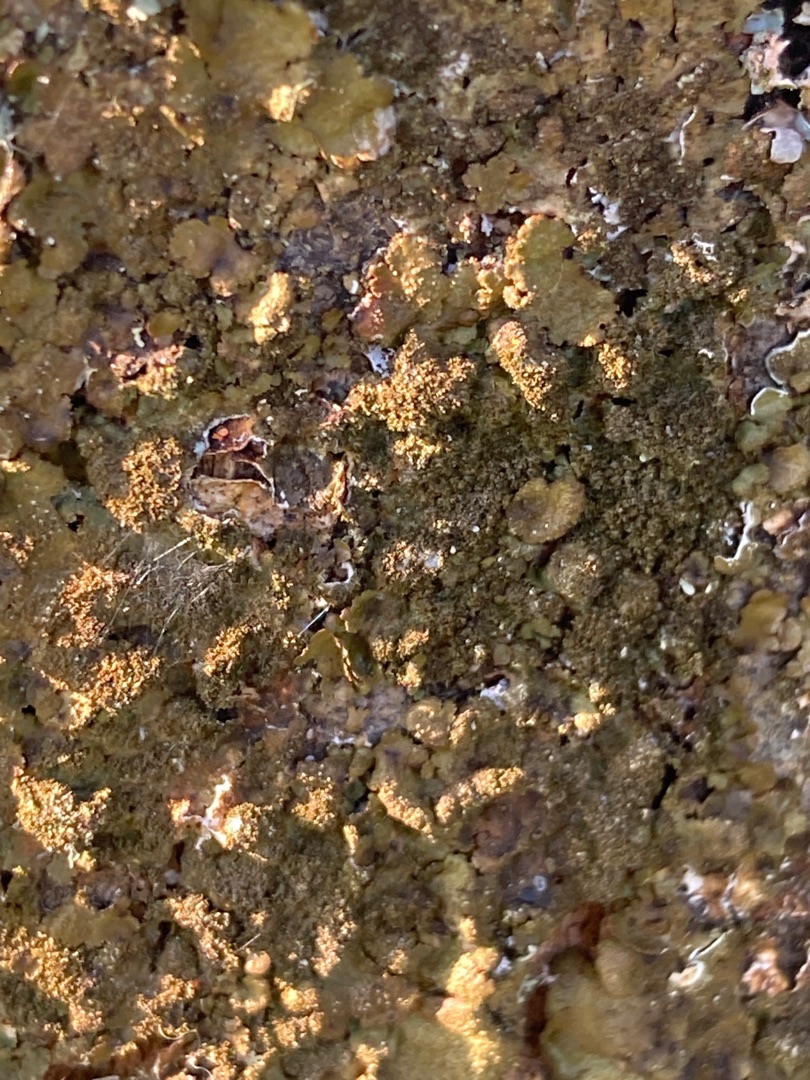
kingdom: Fungi
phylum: Ascomycota
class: Lecanoromycetes
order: Lecanorales
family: Parmeliaceae
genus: Melanelixia
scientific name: Melanelixia subaurifera
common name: Guldpudret skållav
